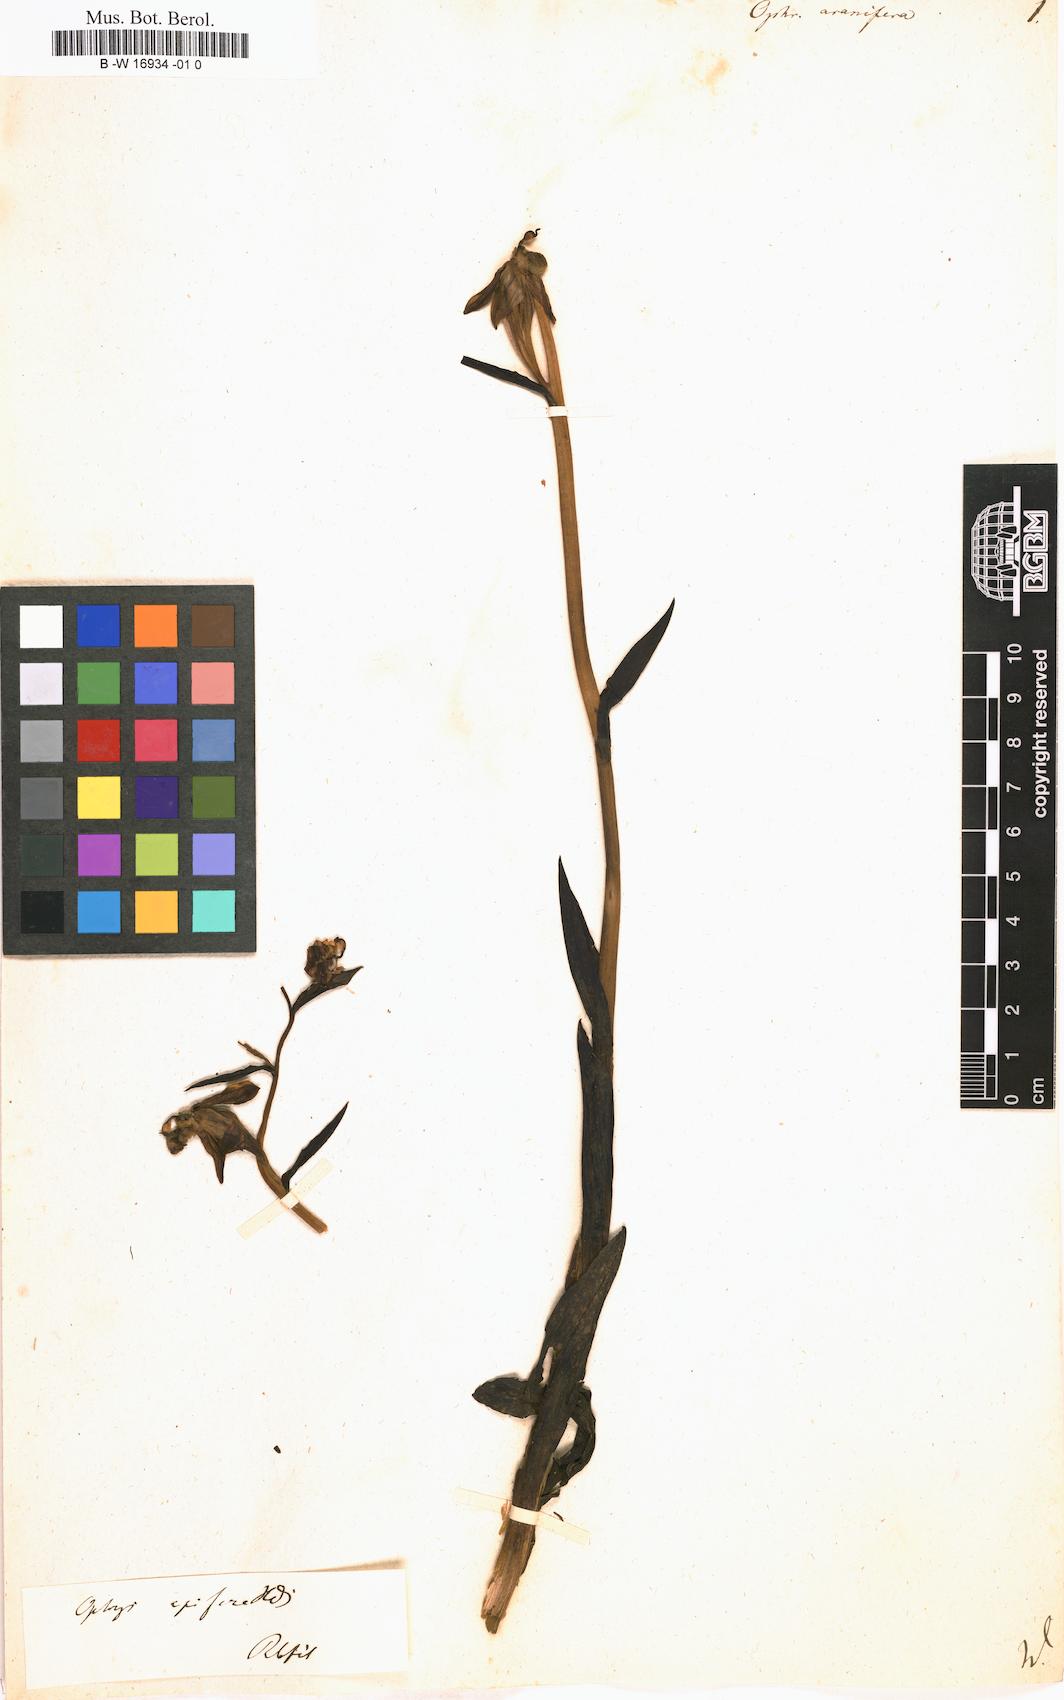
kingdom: Plantae
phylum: Tracheophyta
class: Liliopsida
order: Asparagales
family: Orchidaceae
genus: Ophrys
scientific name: Ophrys sphegodes
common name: Early spider-orchid
